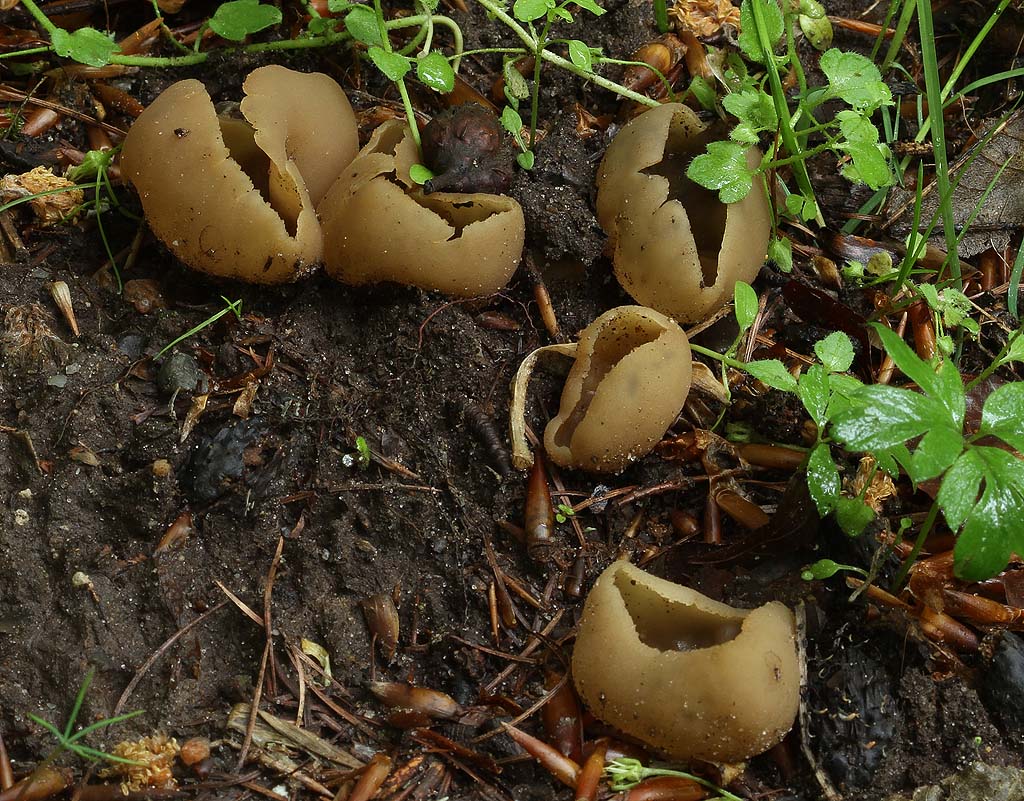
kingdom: Fungi
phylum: Ascomycota
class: Pezizomycetes
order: Pezizales
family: Pezizaceae
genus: Peziza
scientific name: Peziza repanda
